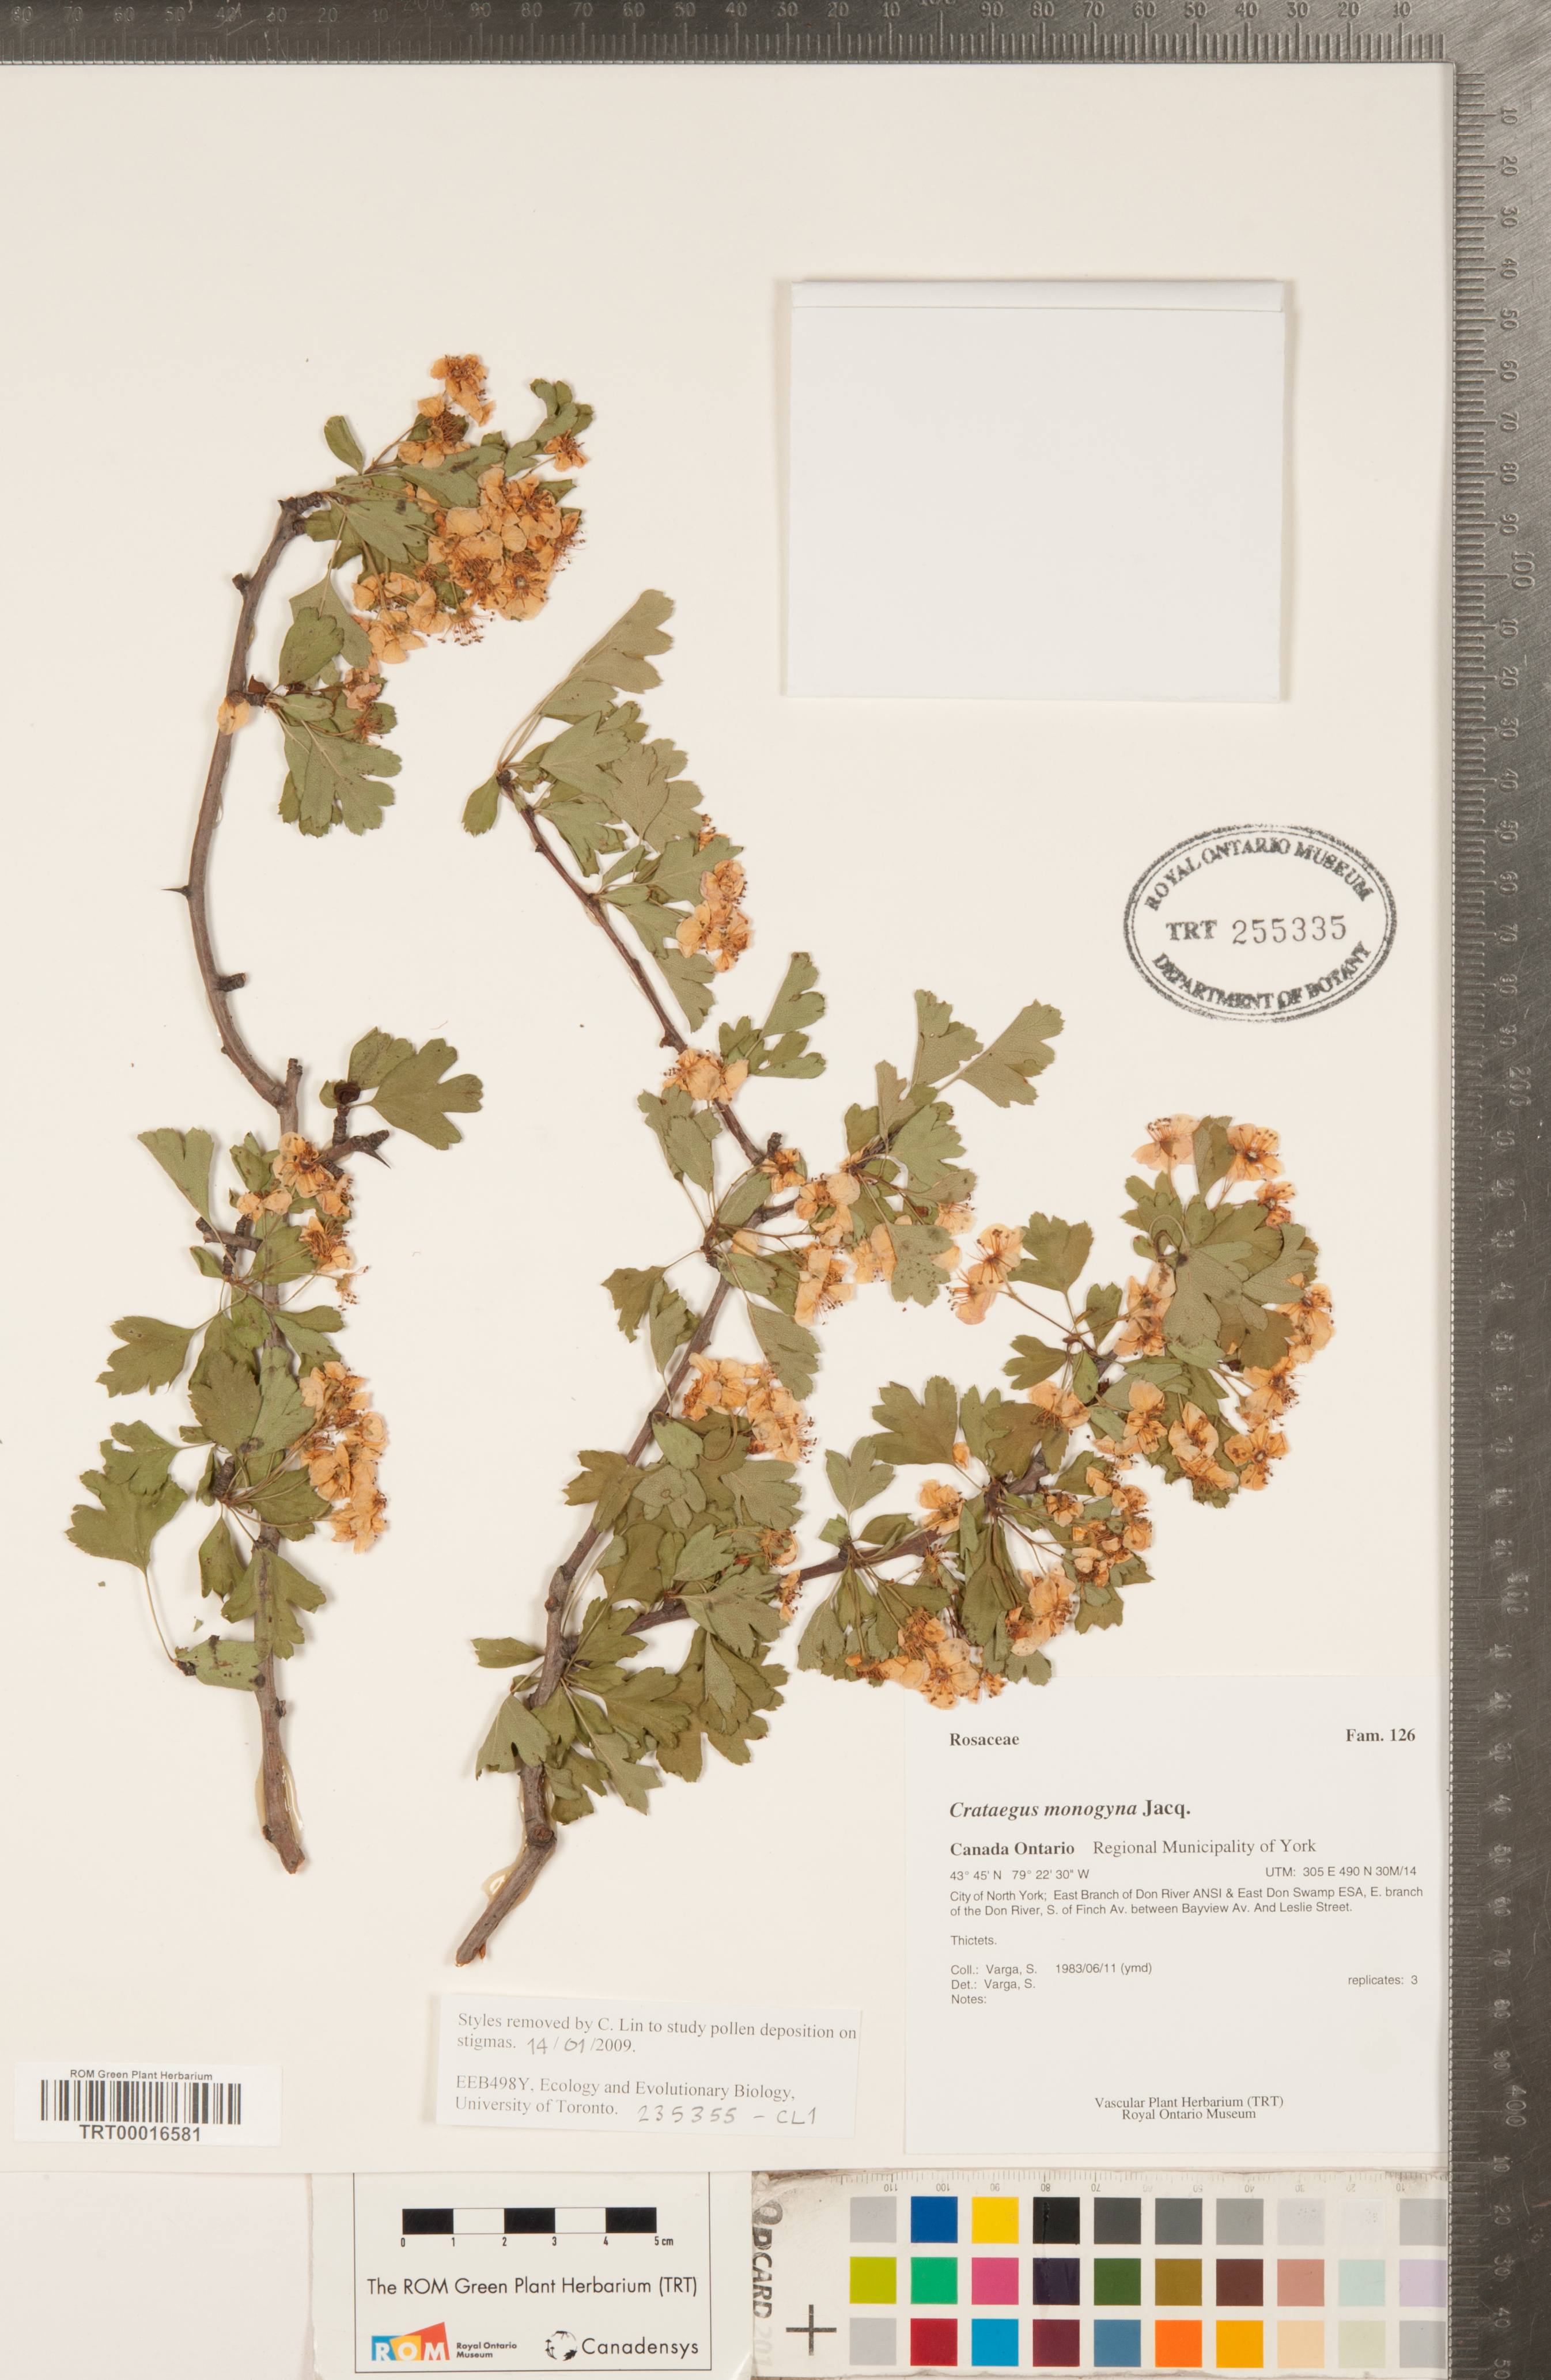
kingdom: Plantae
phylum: Tracheophyta
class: Magnoliopsida
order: Rosales
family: Rosaceae
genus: Crataegus
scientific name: Crataegus monogyna
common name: Hawthorn
